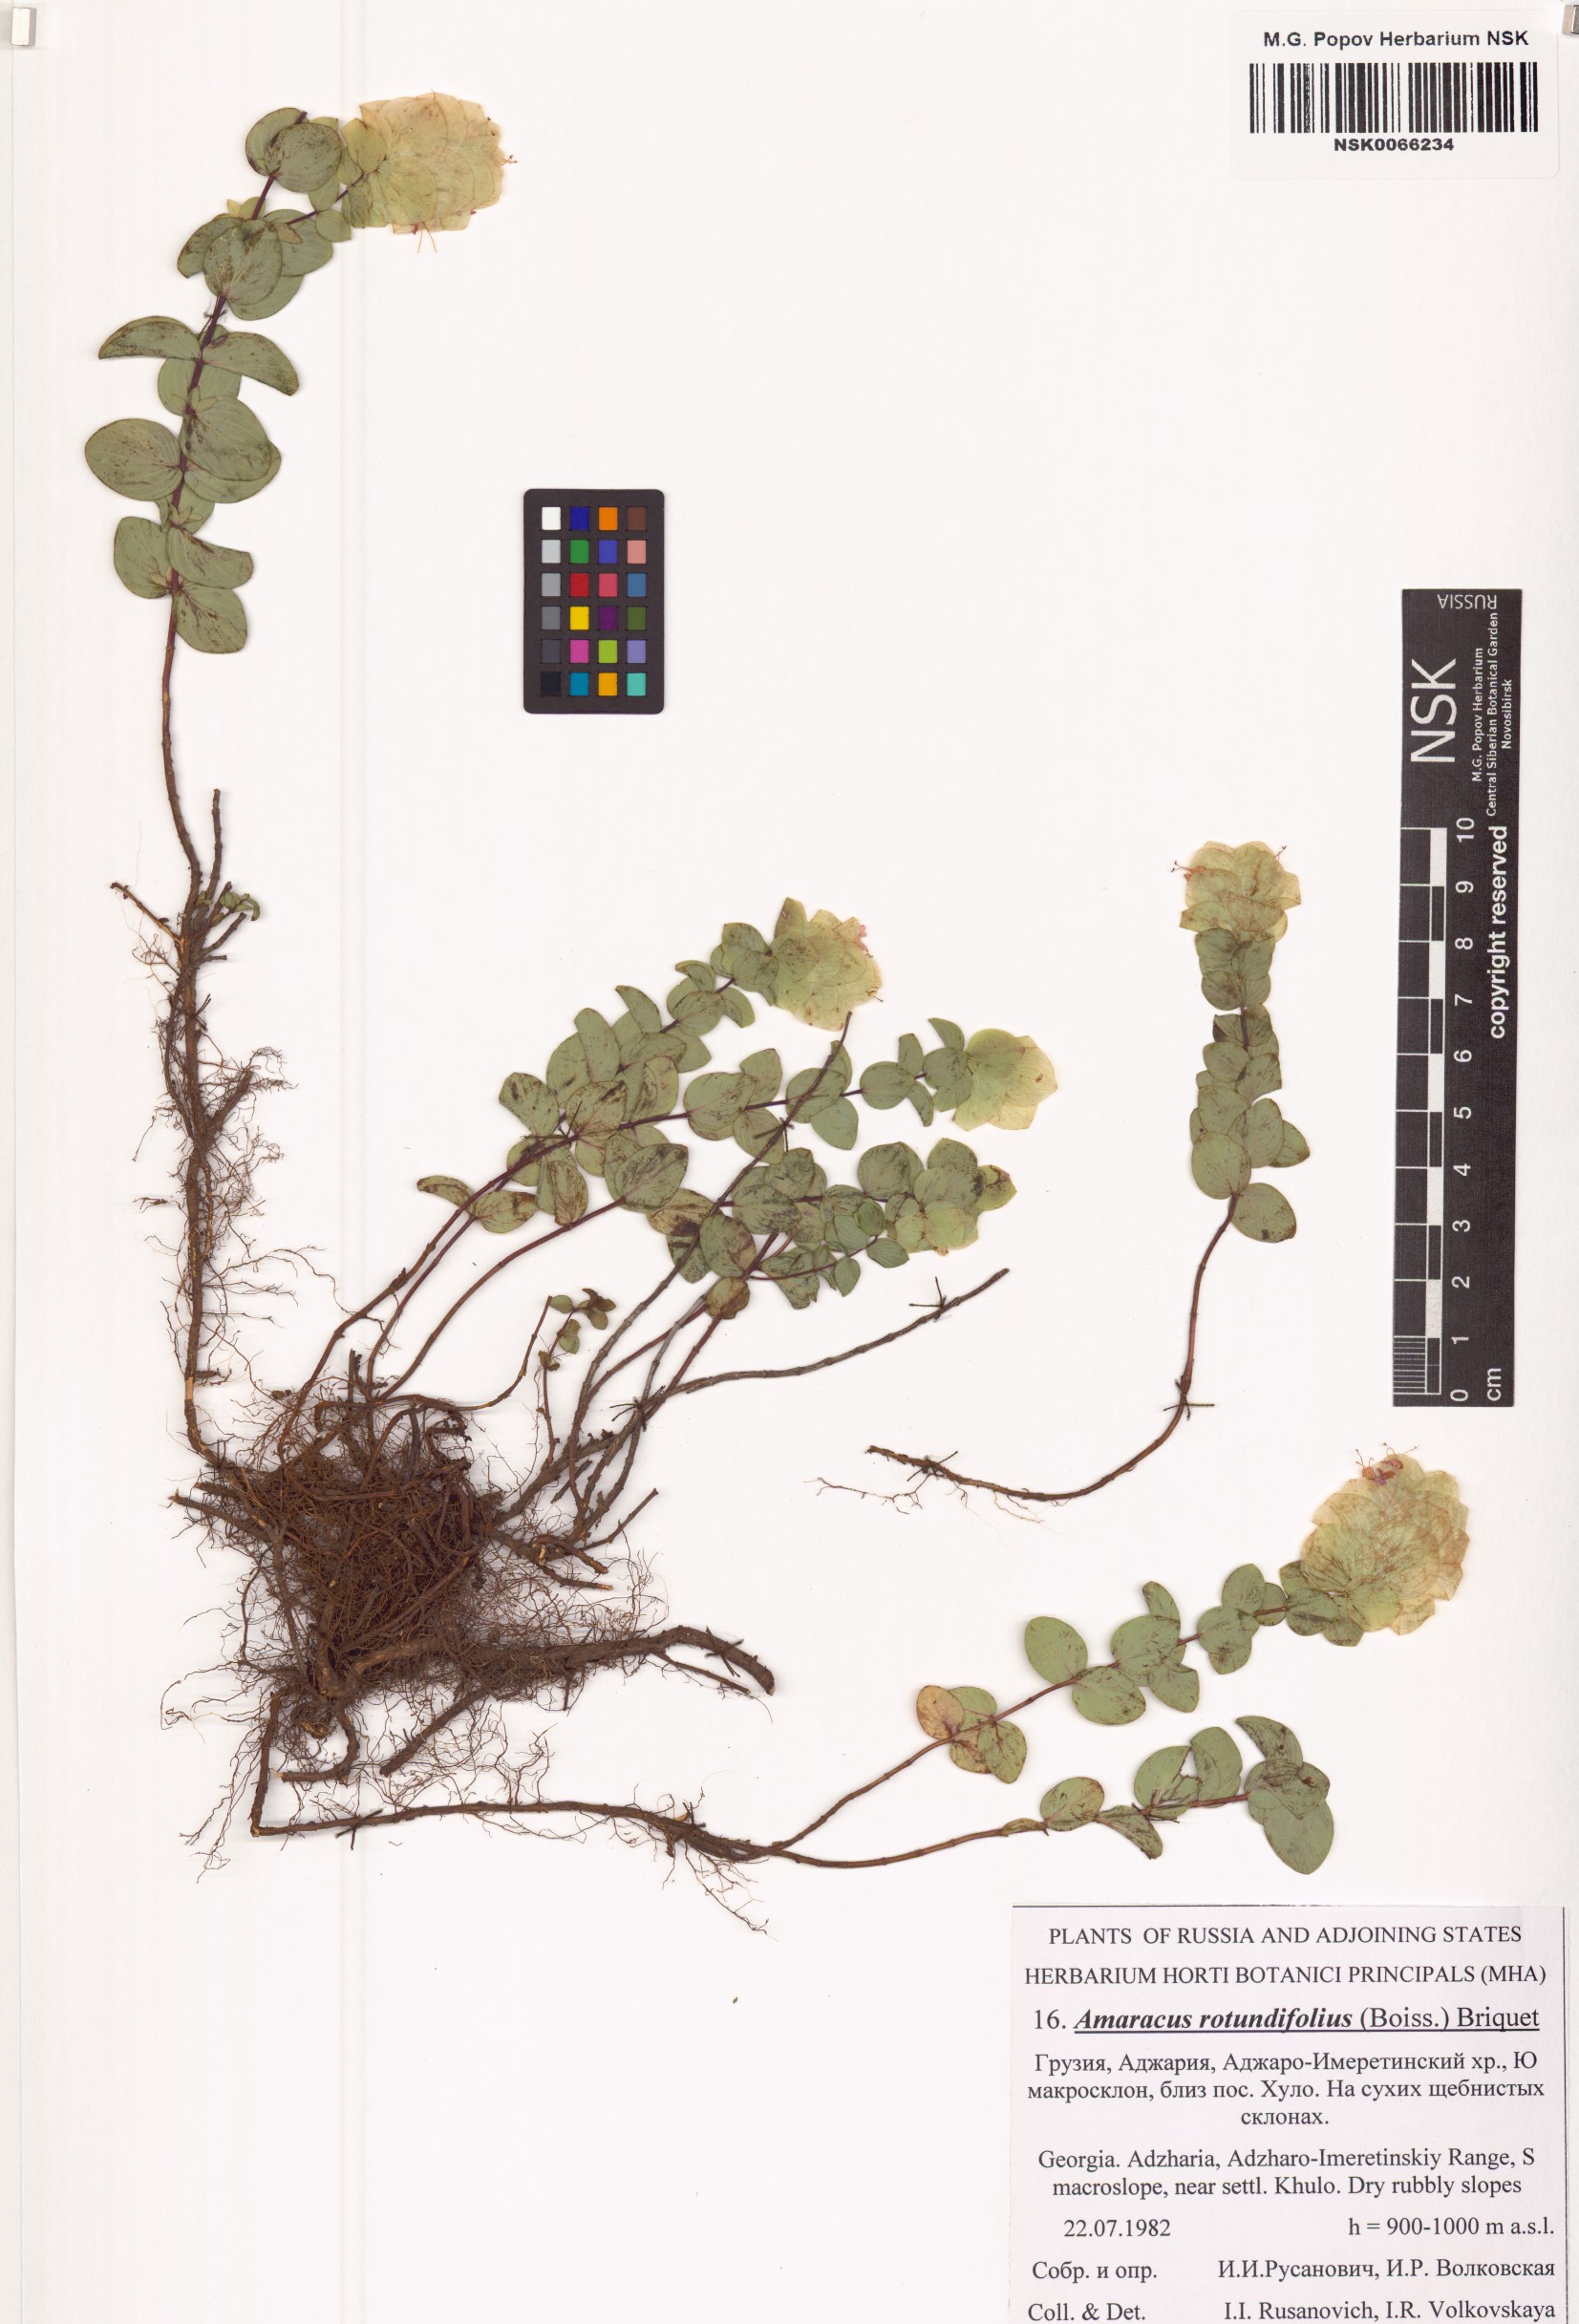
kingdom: Plantae
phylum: Tracheophyta
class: Magnoliopsida
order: Lamiales
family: Lamiaceae
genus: Origanum
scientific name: Origanum rotundifolium
